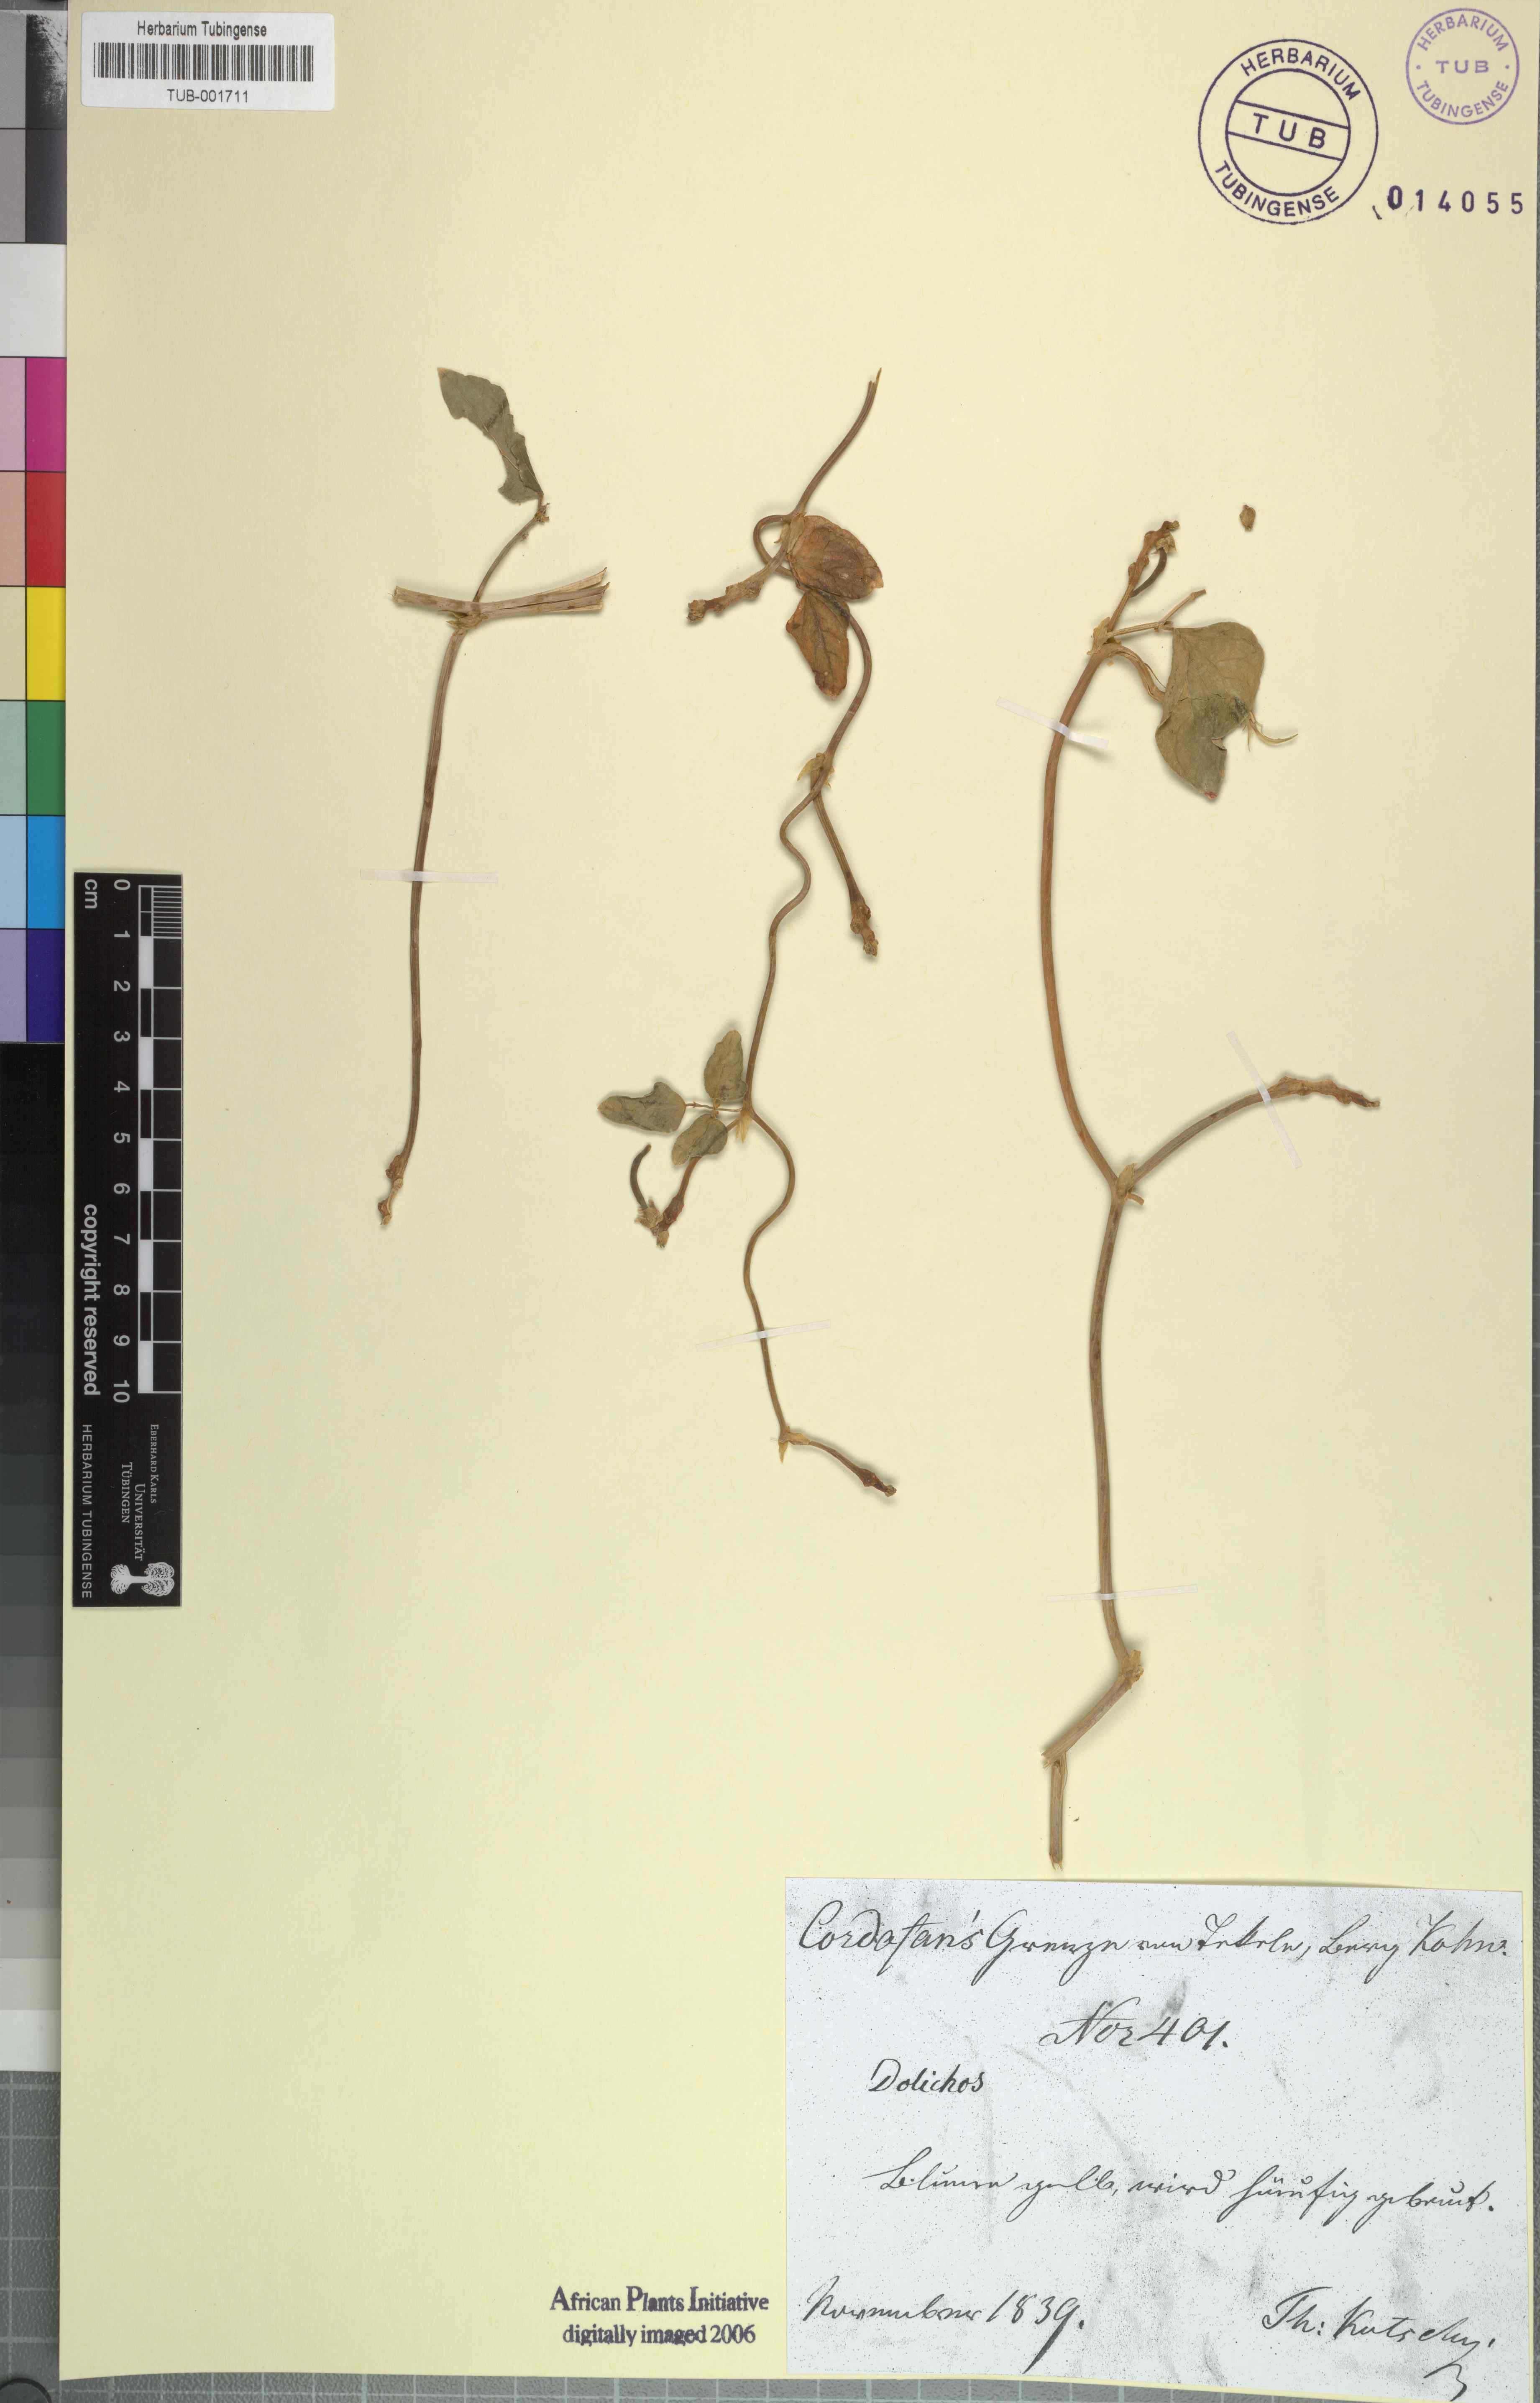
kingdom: Plantae
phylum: Tracheophyta
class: Magnoliopsida
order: Fabales
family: Fabaceae
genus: Dolichos
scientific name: Dolichos
